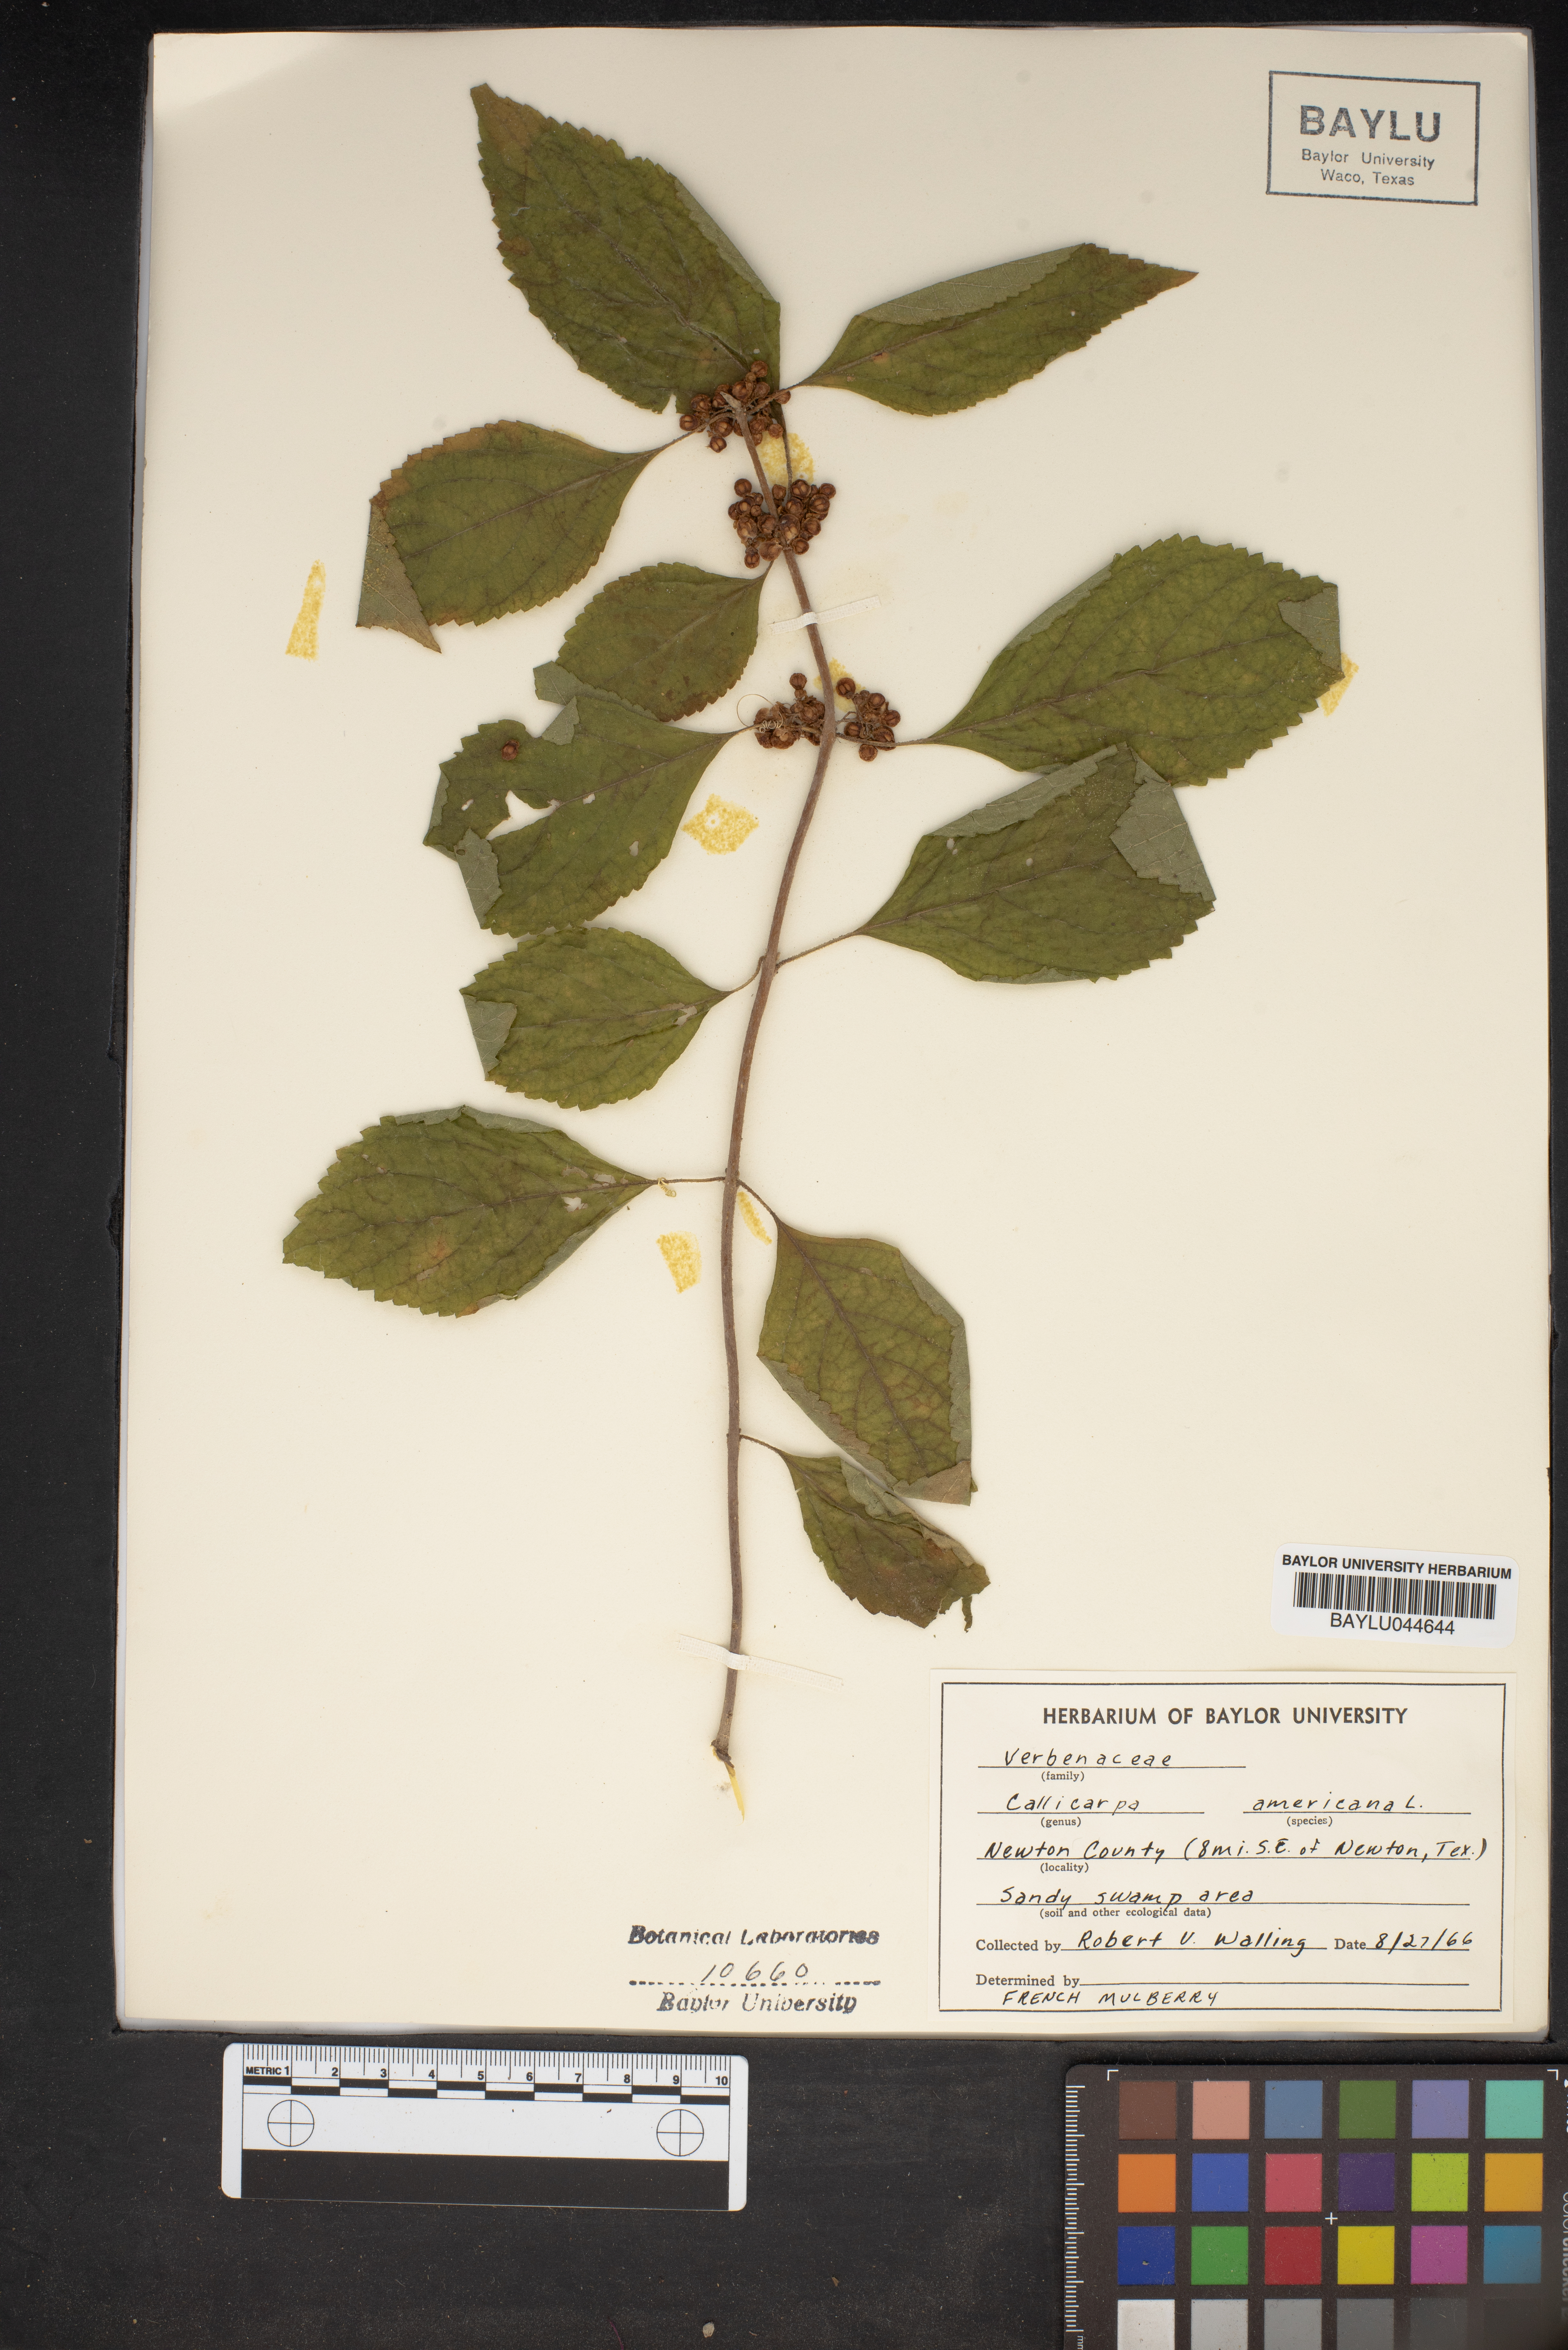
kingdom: Plantae
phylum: Tracheophyta
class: Magnoliopsida
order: Lamiales
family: Lamiaceae
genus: Callicarpa
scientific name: Callicarpa americana
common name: American beautyberry
